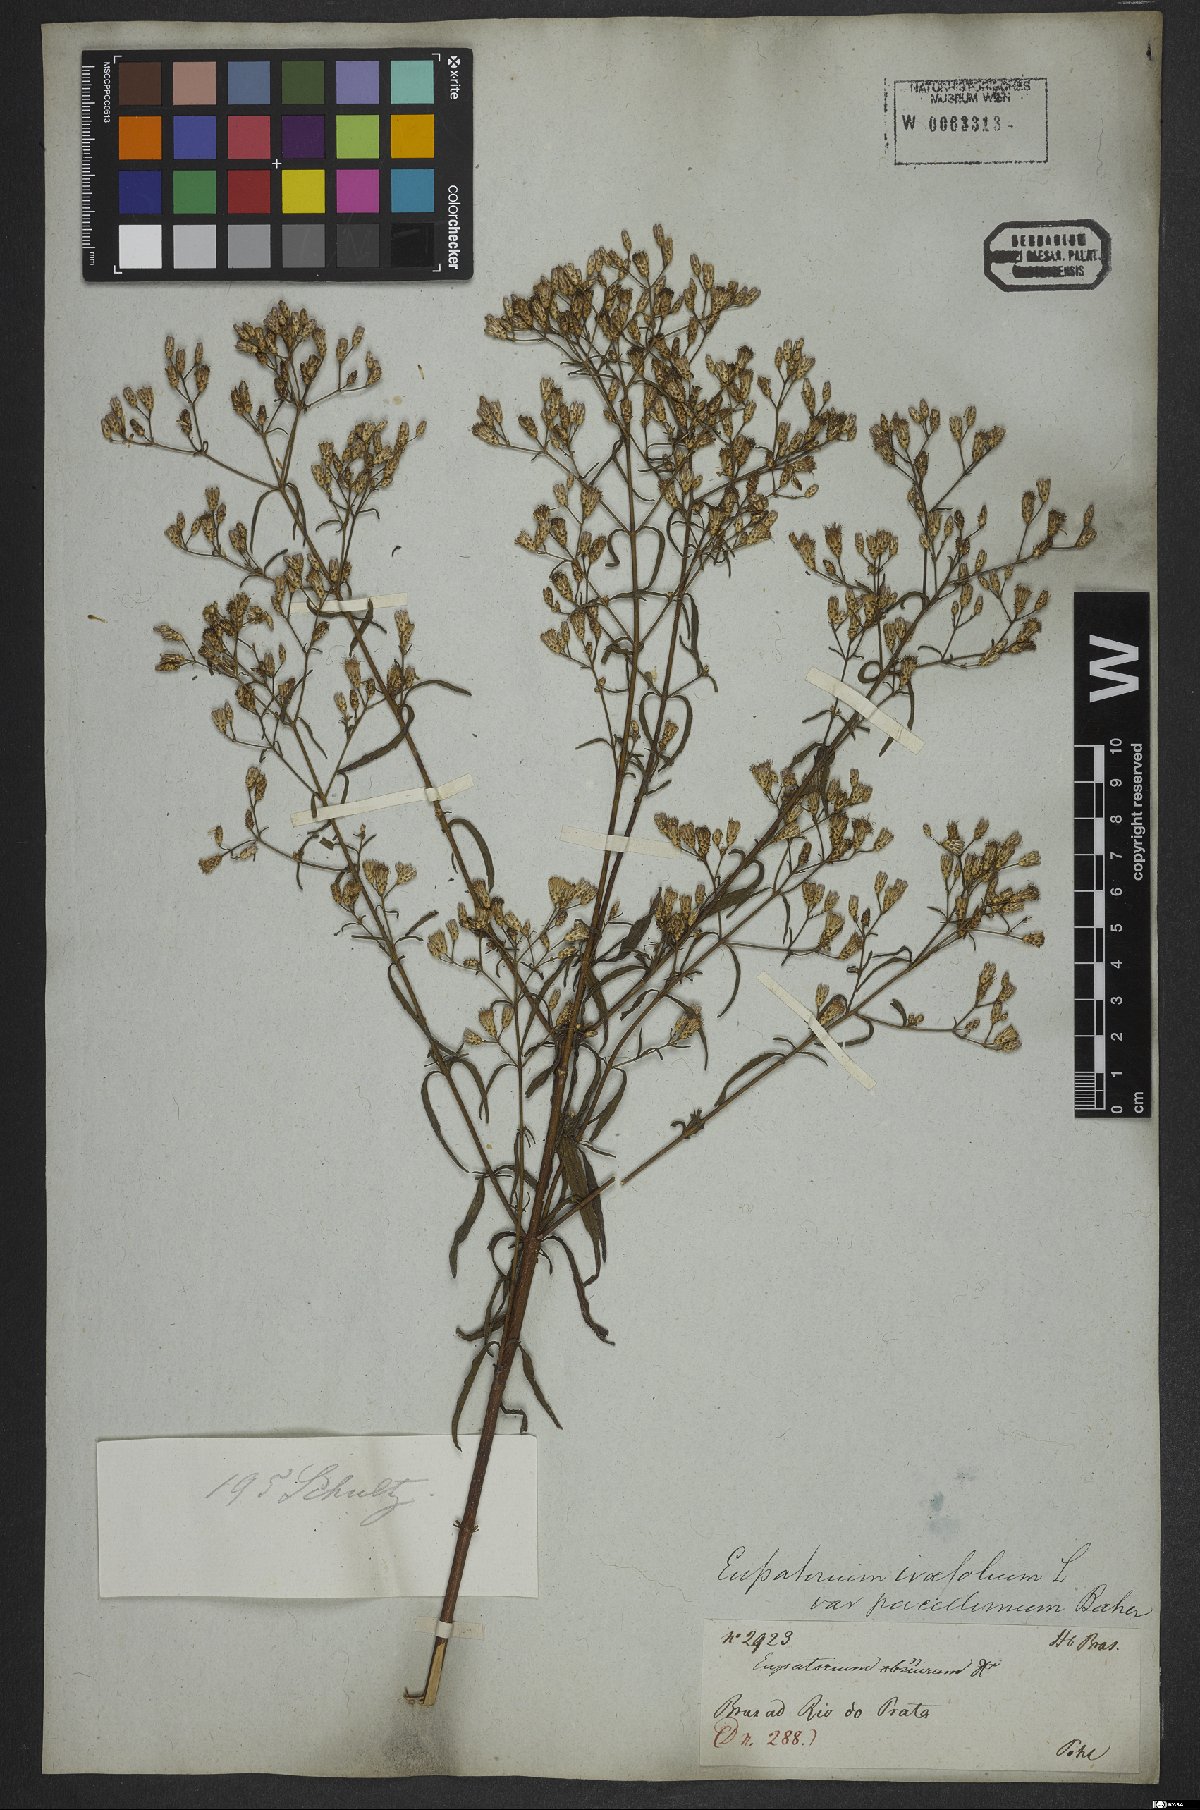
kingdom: Plantae
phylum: Tracheophyta
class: Magnoliopsida
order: Asterales
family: Asteraceae
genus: Chromolaena
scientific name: Chromolaena ivifolia
